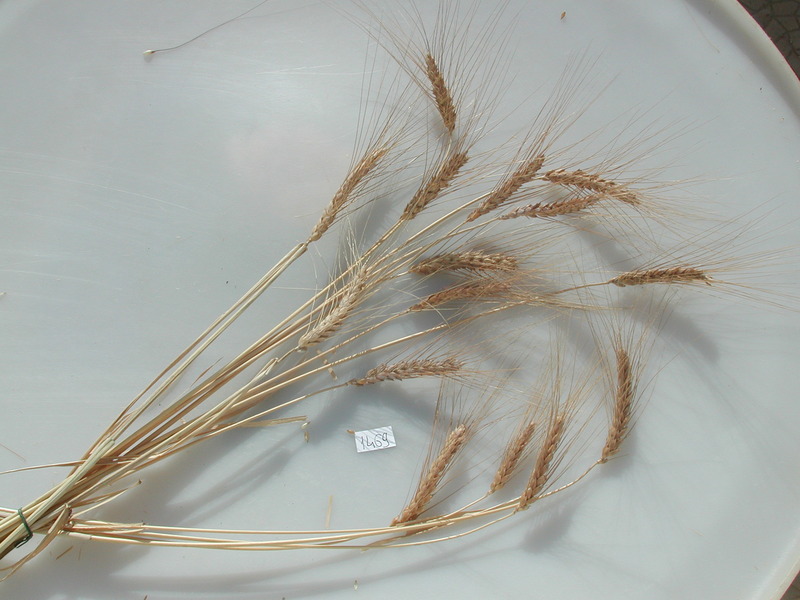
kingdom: Plantae
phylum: Tracheophyta
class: Liliopsida
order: Poales
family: Poaceae
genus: Triticum
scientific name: Triticum turgidum
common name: Wheat
